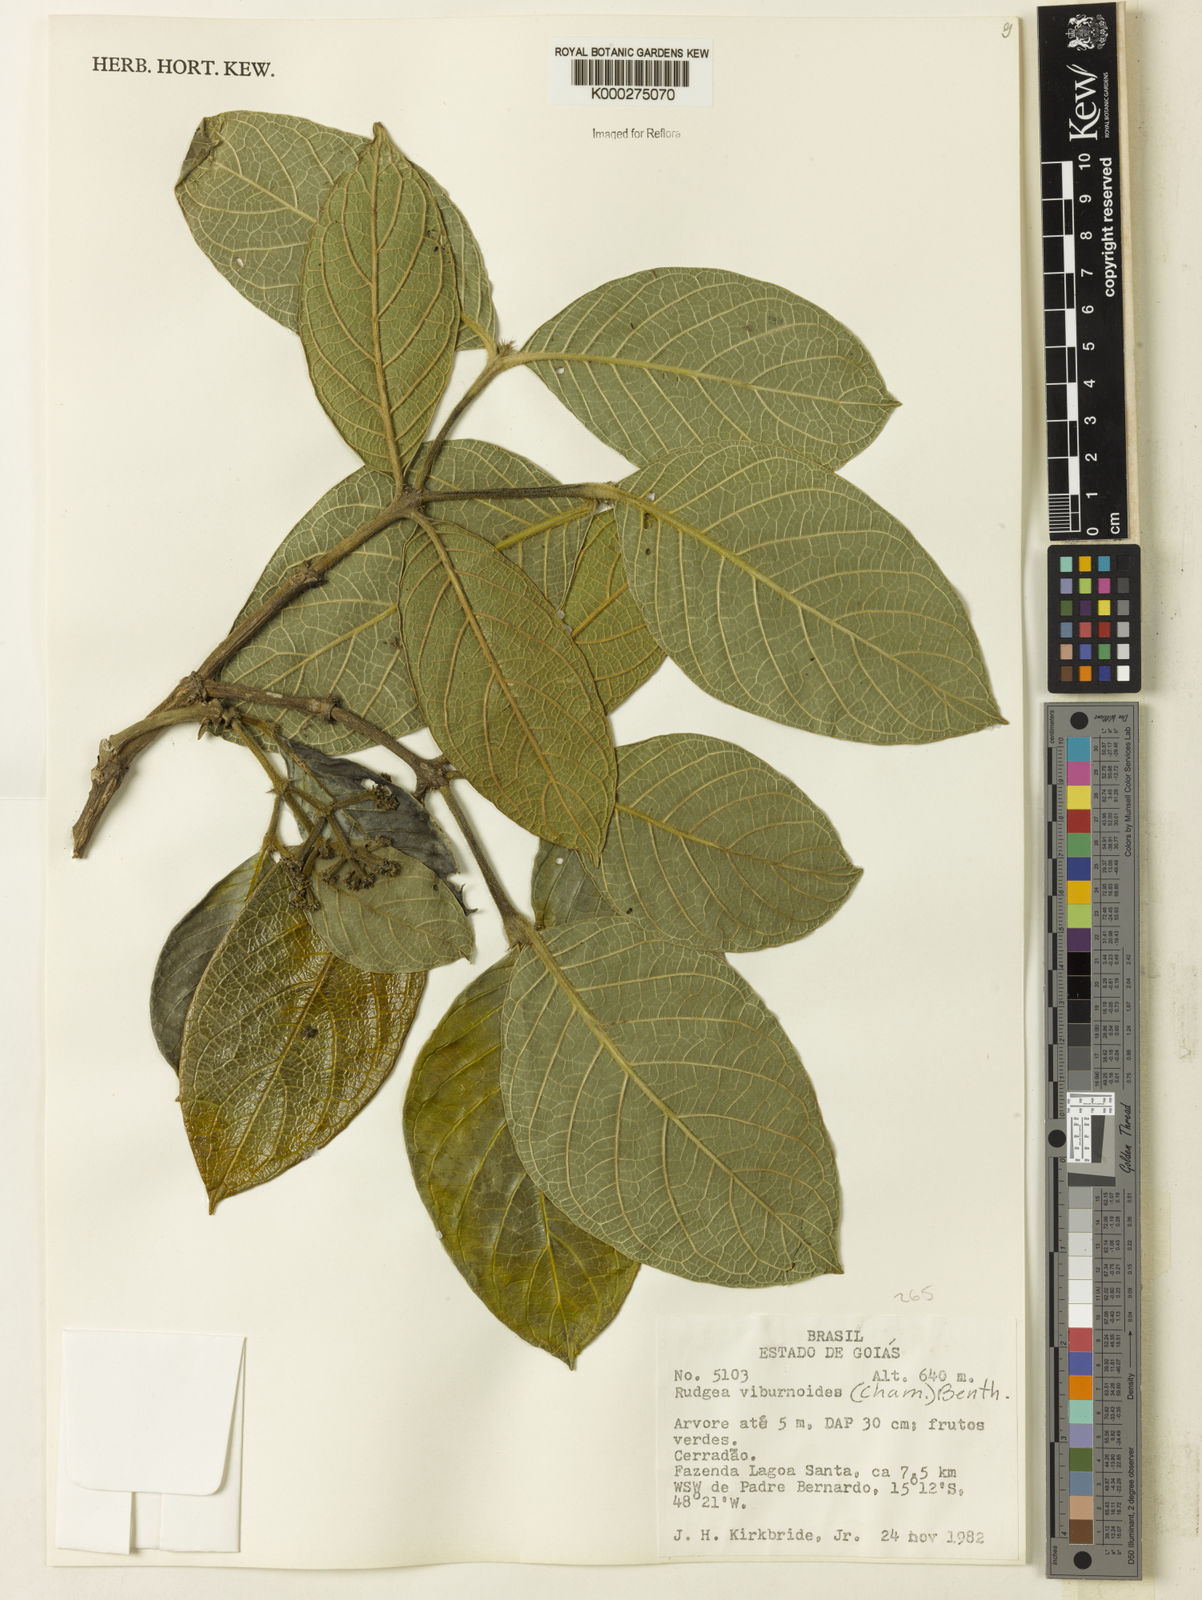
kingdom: Plantae
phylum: Tracheophyta
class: Magnoliopsida
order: Gentianales
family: Rubiaceae
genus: Rudgea
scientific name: Rudgea viburnoides
